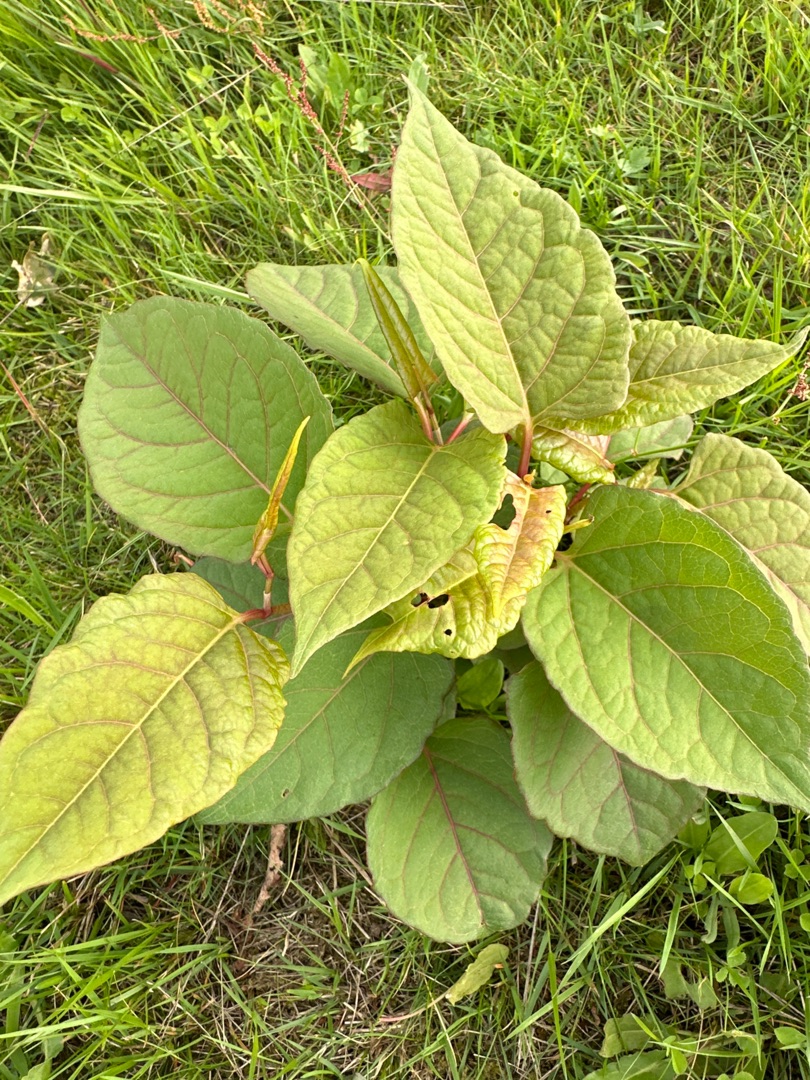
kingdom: Plantae
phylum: Tracheophyta
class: Magnoliopsida
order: Caryophyllales
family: Polygonaceae
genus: Reynoutria
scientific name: Reynoutria japonica
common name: Japan-pileurt
